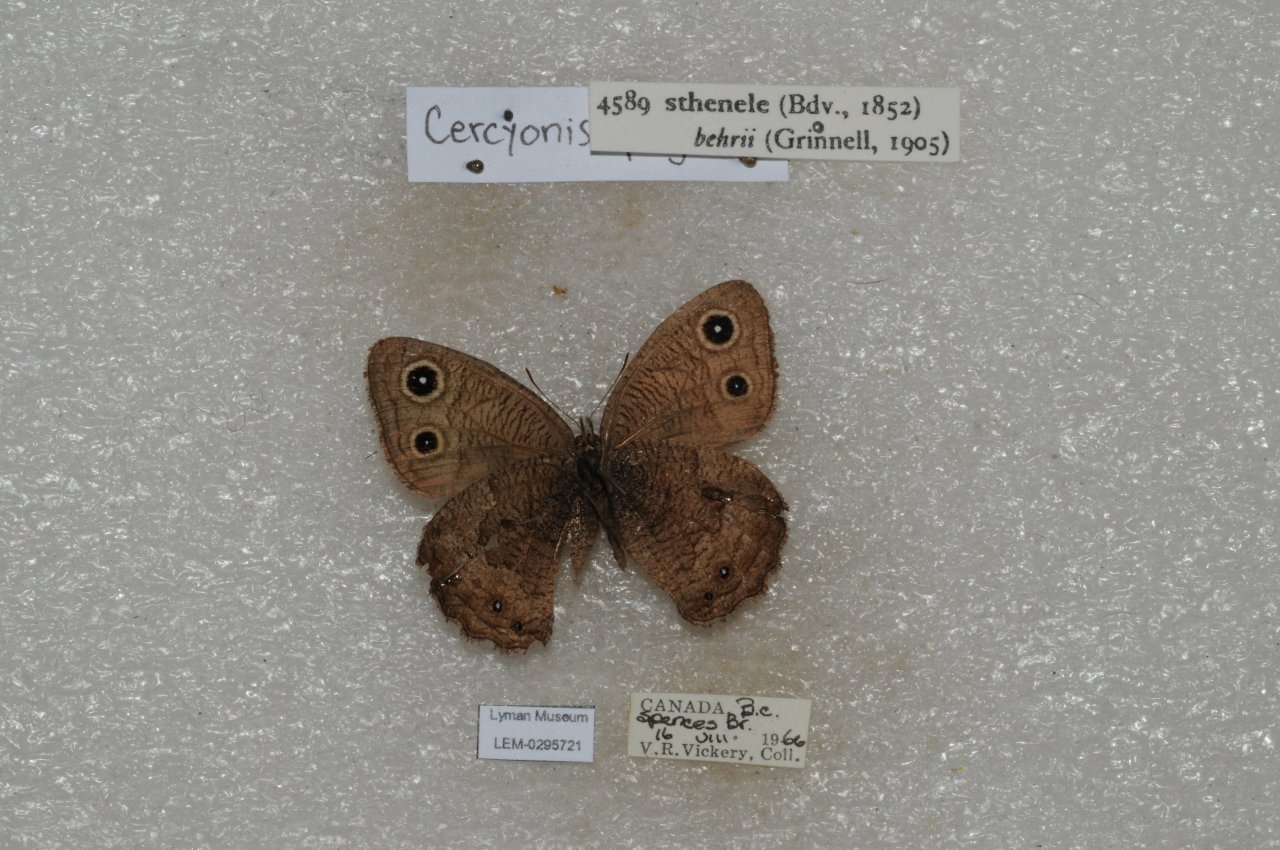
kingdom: Animalia
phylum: Arthropoda
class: Insecta
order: Lepidoptera
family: Nymphalidae
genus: Cercyonis
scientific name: Cercyonis sthenele
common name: Great Basin Wood-Nymph
